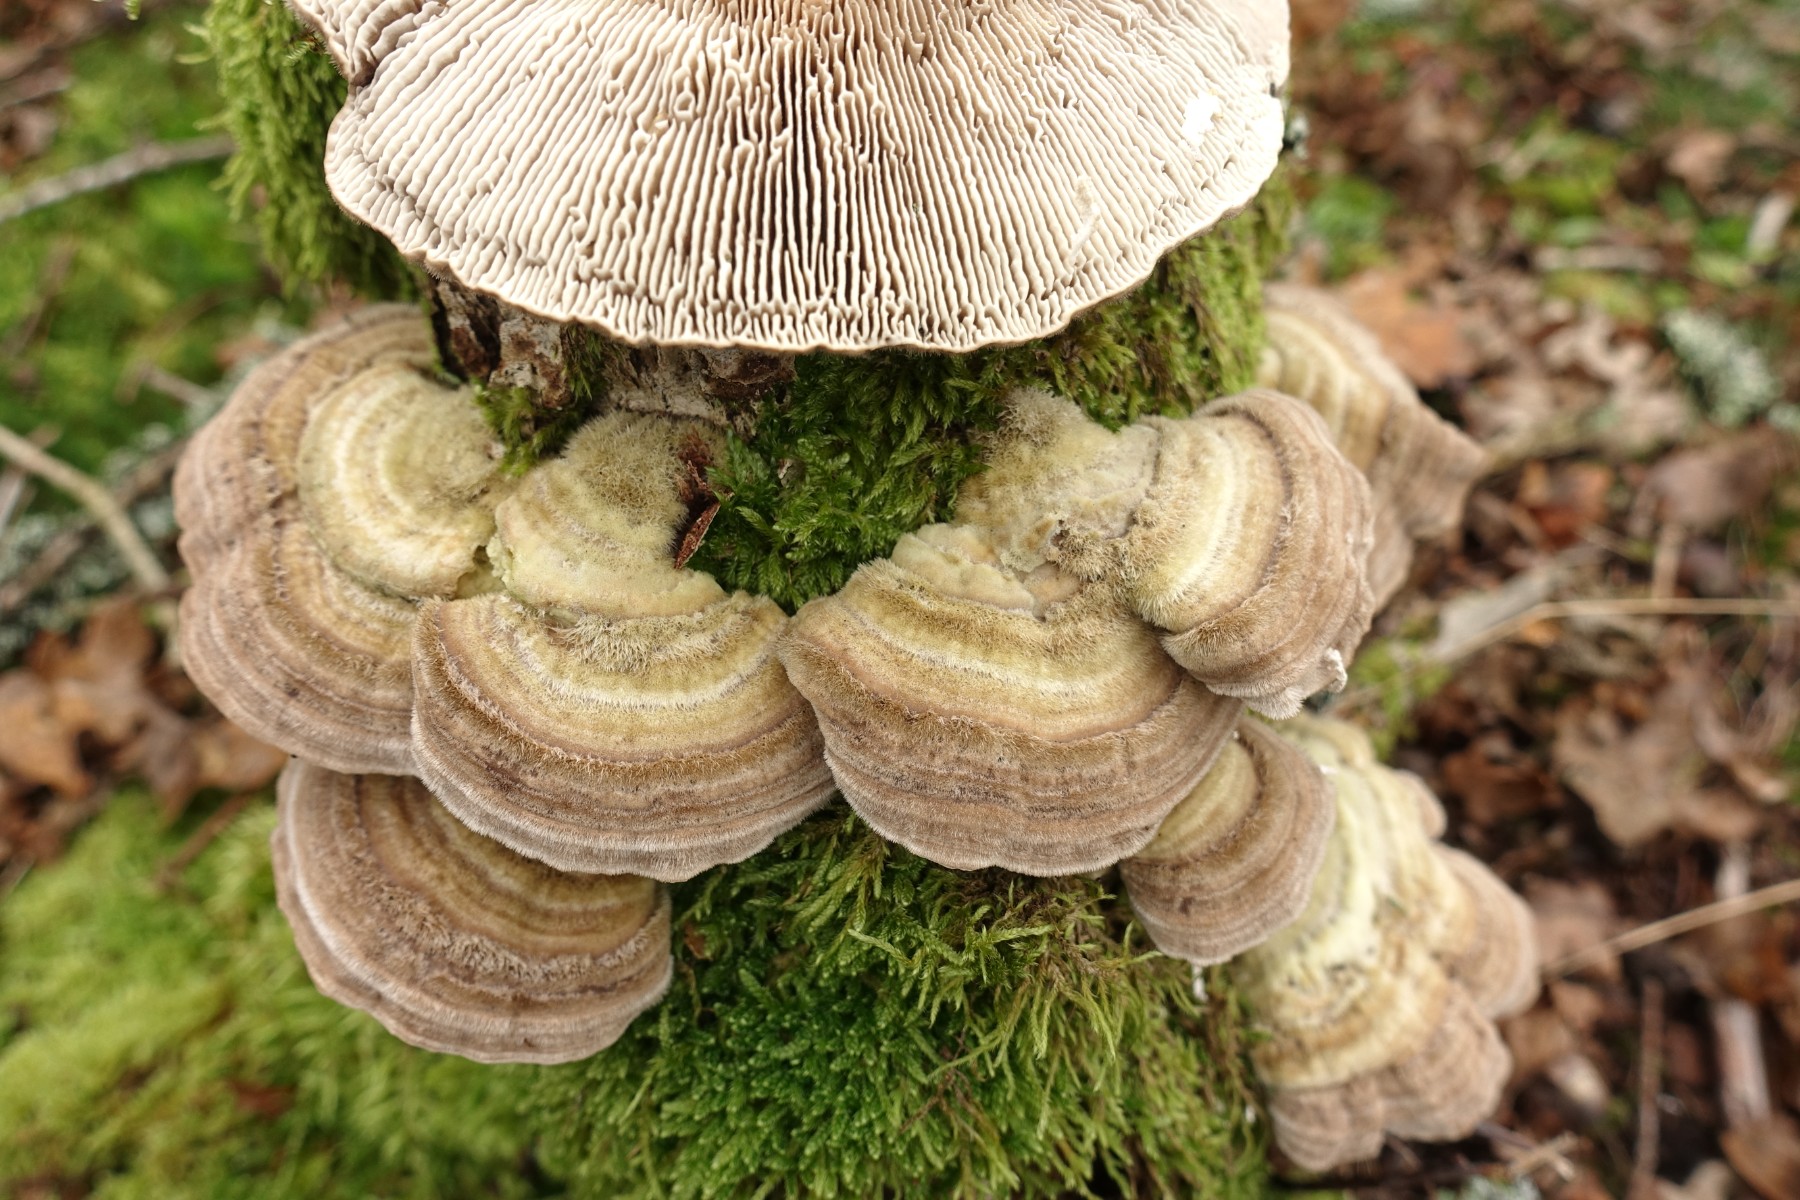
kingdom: Fungi
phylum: Basidiomycota
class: Agaricomycetes
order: Polyporales
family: Polyporaceae
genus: Lenzites
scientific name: Lenzites betulinus
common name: birke-læderporesvamp
